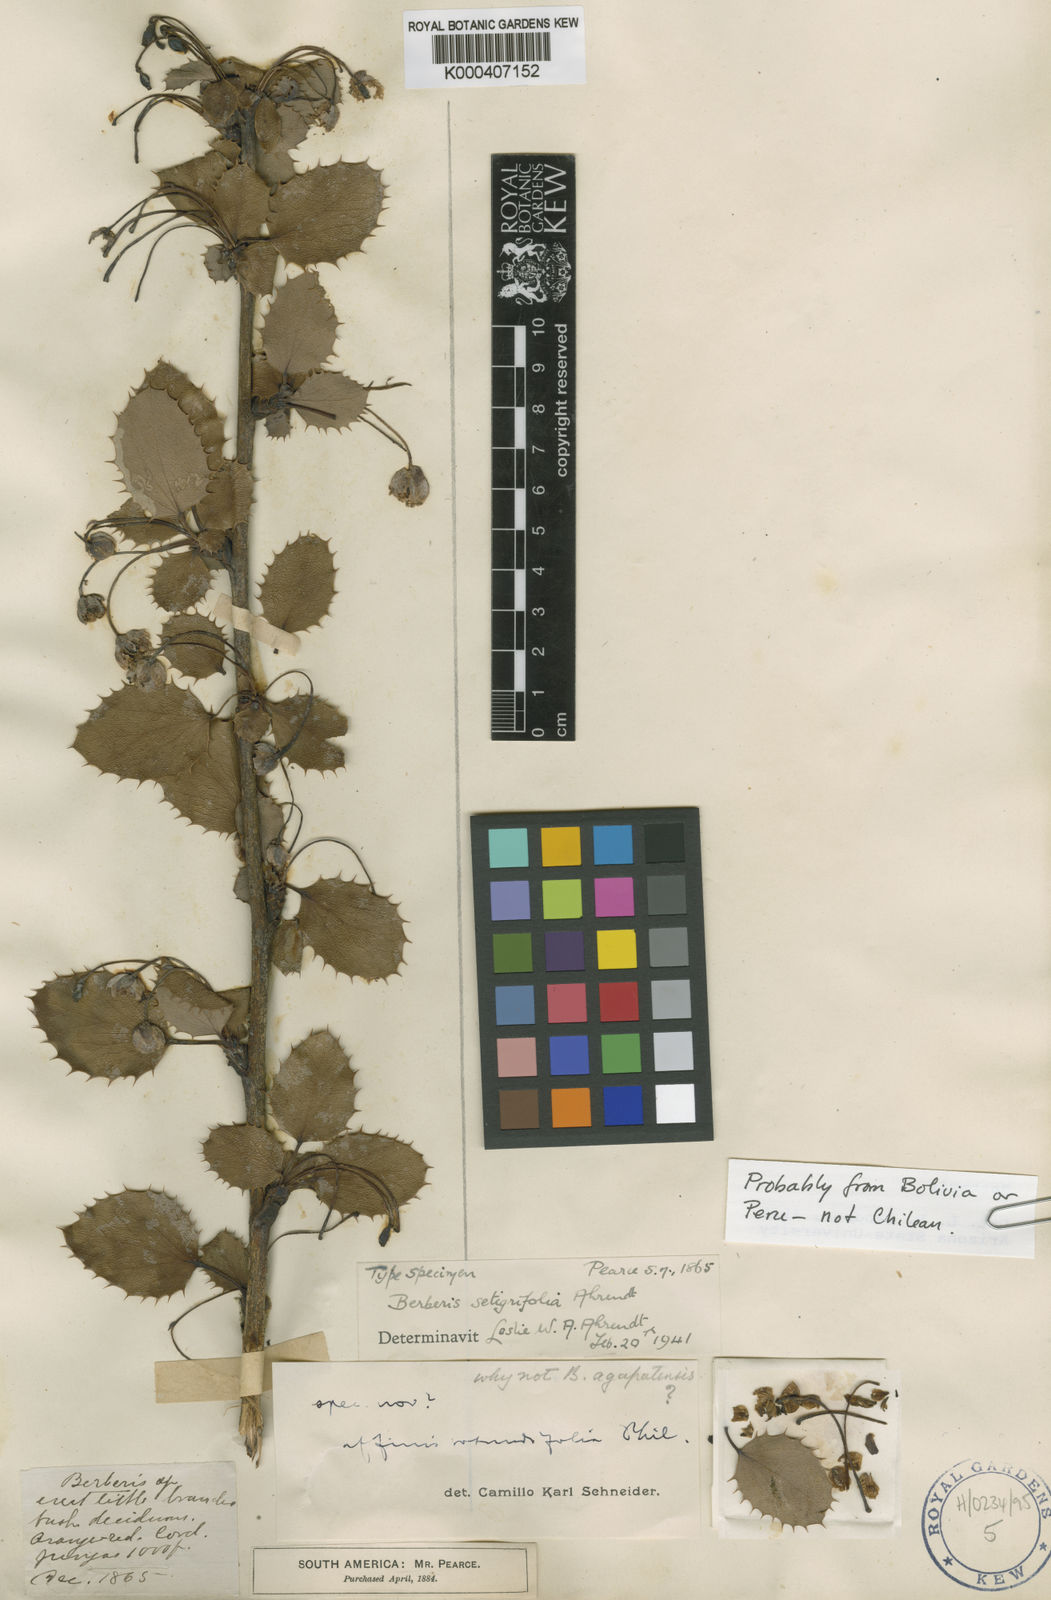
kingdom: Plantae
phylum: Tracheophyta
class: Magnoliopsida
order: Ranunculales
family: Berberidaceae
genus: Berberis
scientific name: Berberis agapatensis
